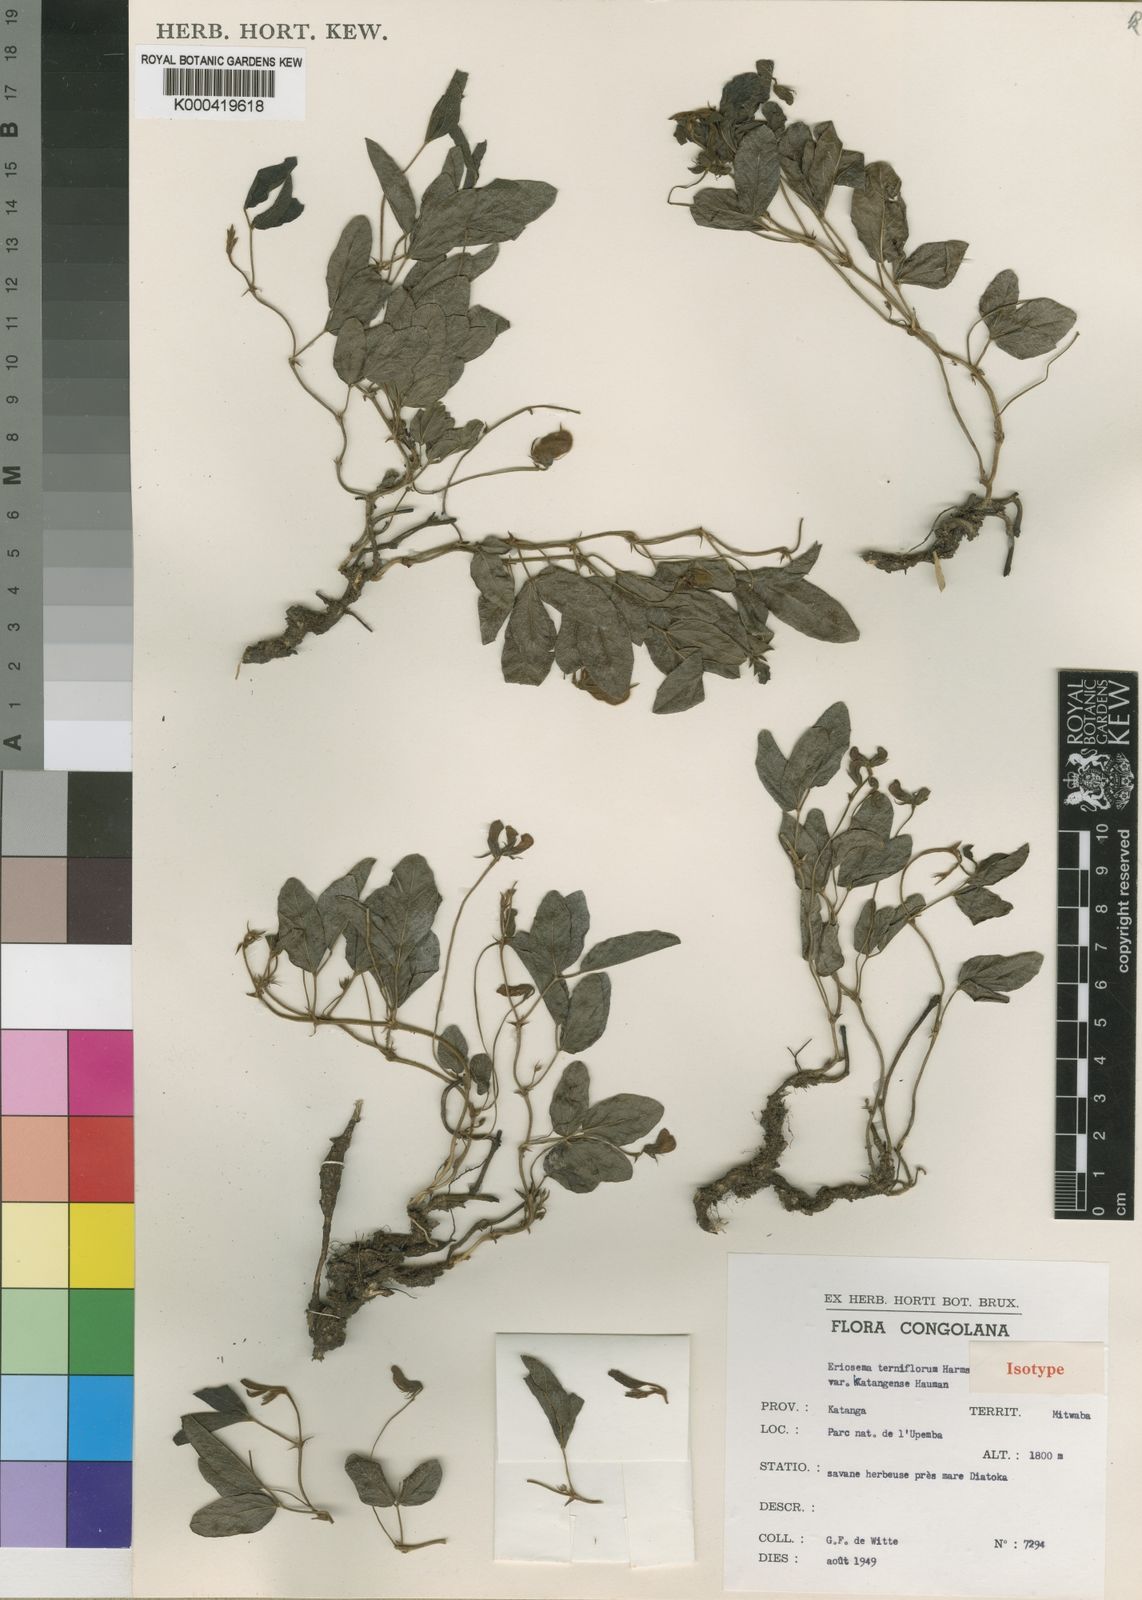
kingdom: Plantae
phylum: Tracheophyta
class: Magnoliopsida
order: Fabales
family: Fabaceae
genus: Eriosema
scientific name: Eriosema terniflorum
